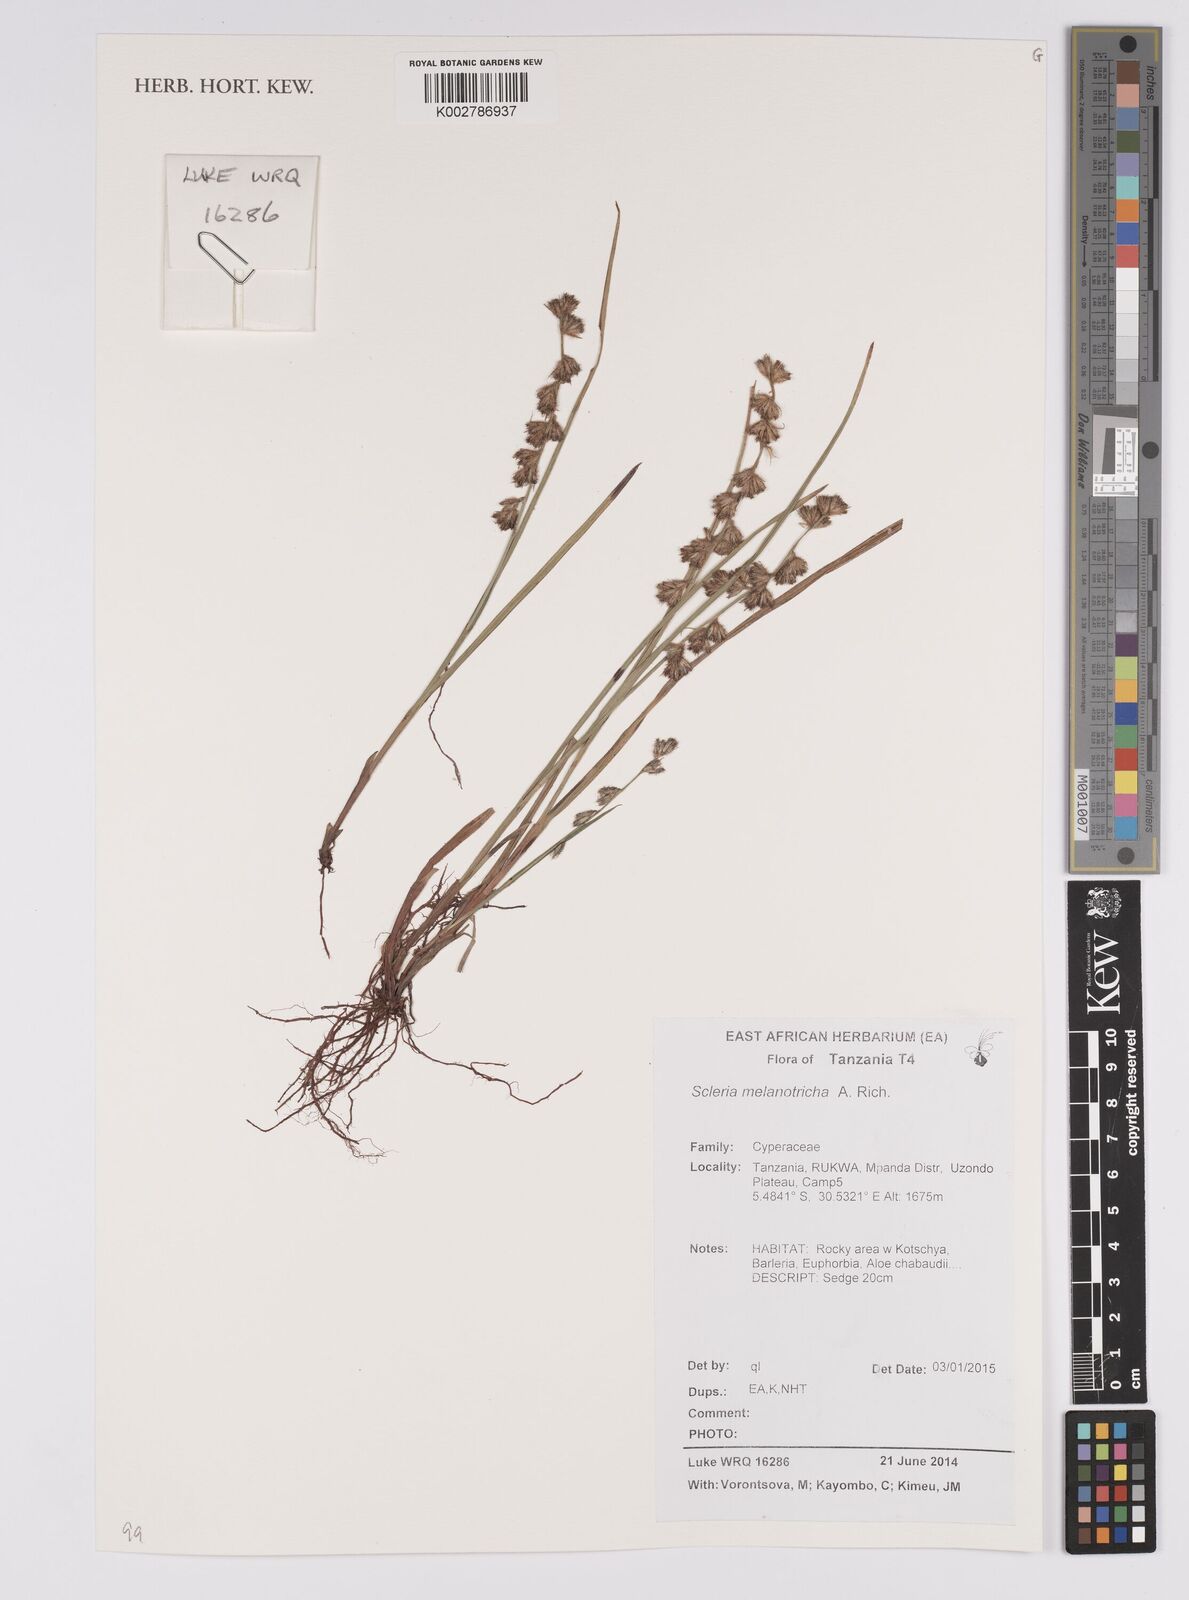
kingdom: Plantae
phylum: Tracheophyta
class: Liliopsida
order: Poales
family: Cyperaceae
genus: Scleria
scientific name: Scleria melanotricha
